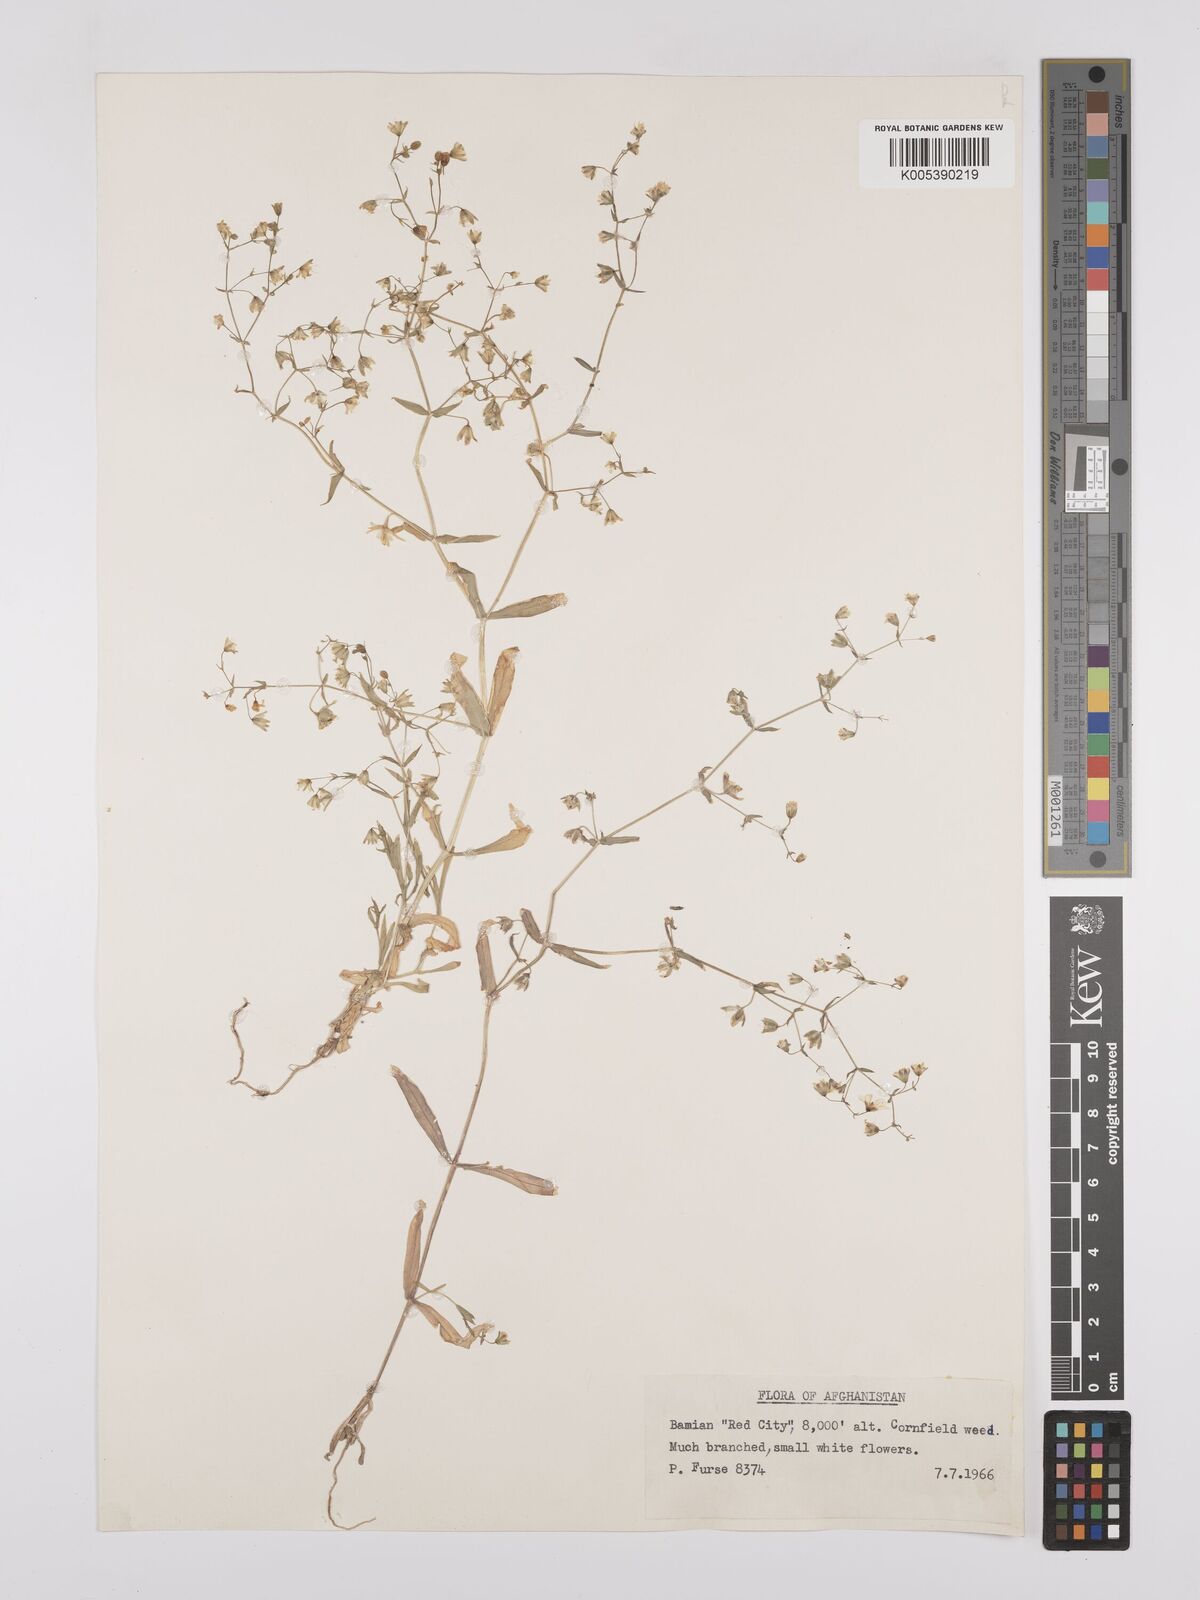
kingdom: Plantae
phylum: Tracheophyta
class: Magnoliopsida
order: Caryophyllales
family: Caryophyllaceae
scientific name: Caryophyllaceae
